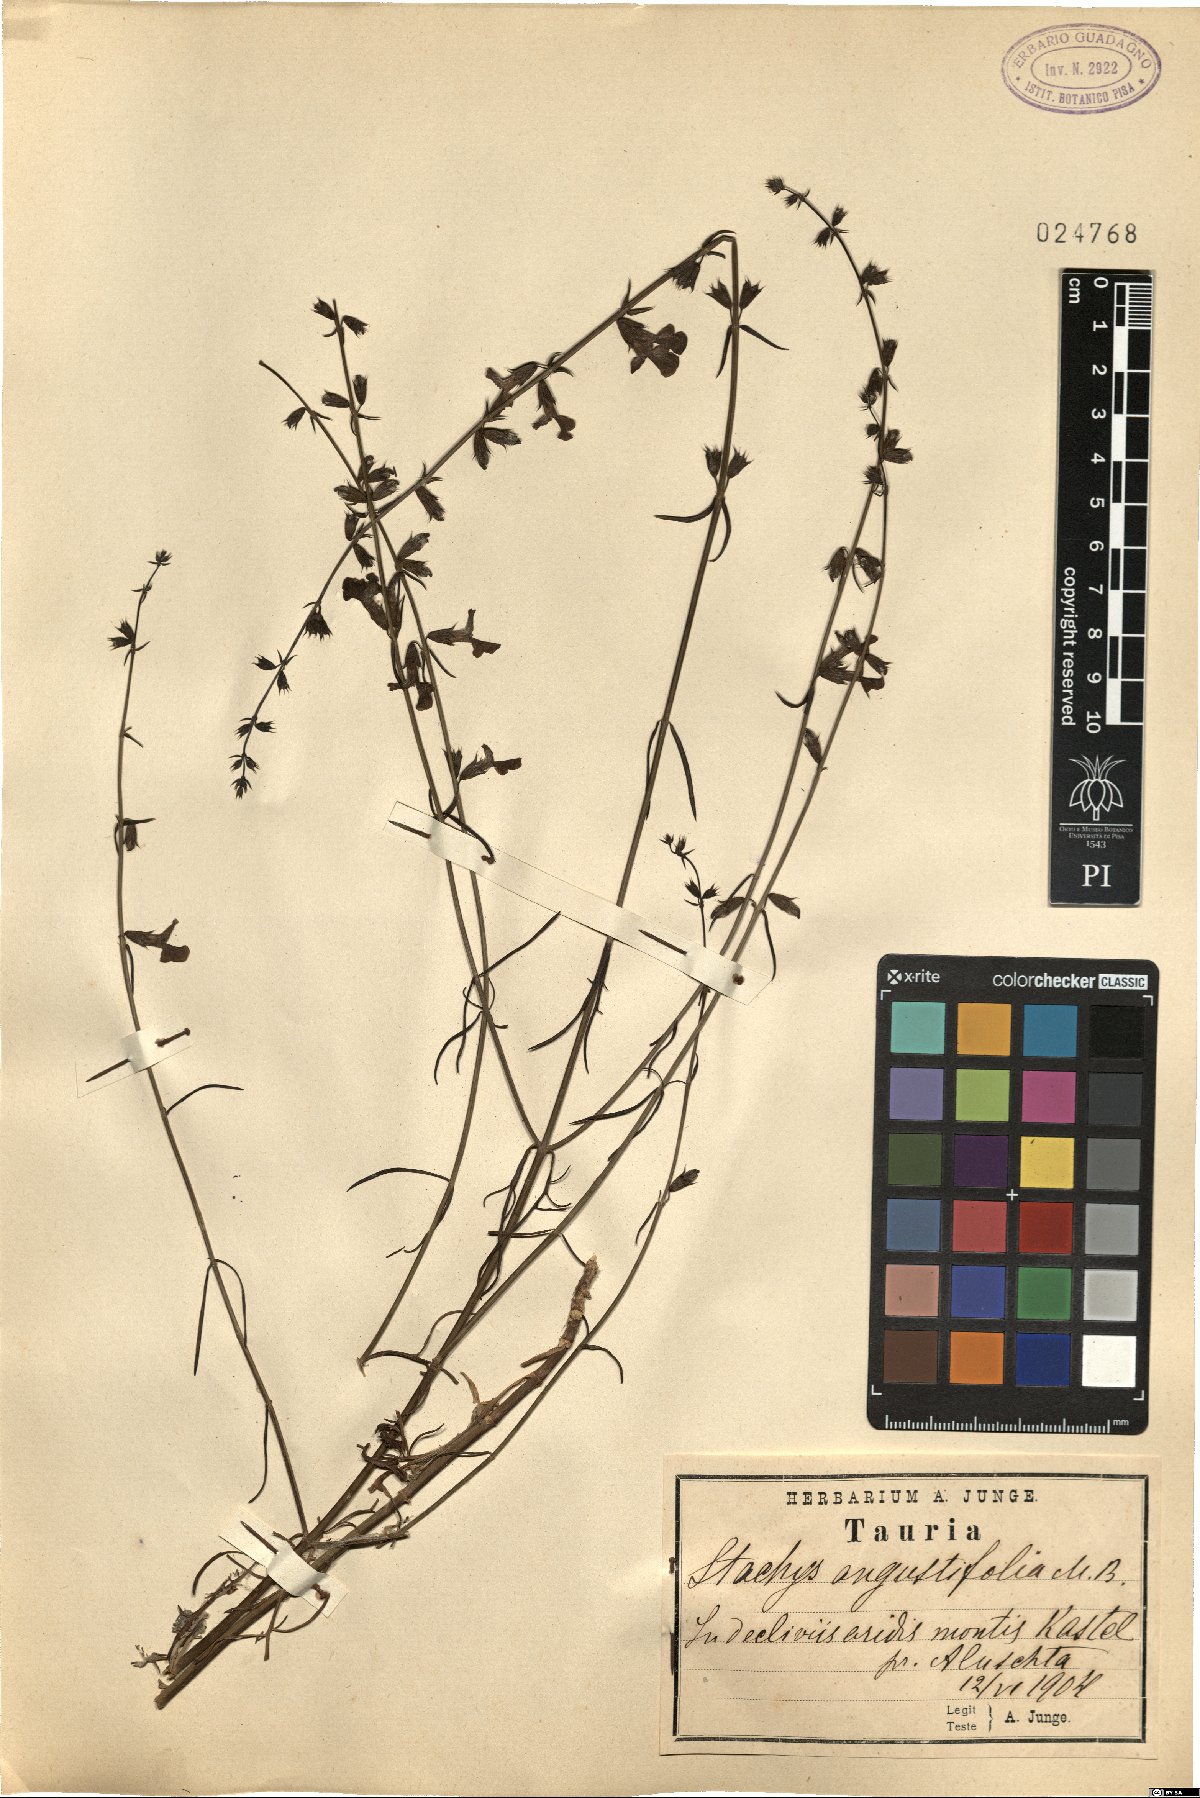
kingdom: Plantae
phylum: Tracheophyta
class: Magnoliopsida
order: Lamiales
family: Lamiaceae
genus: Stachys
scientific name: Stachys angustifolia
